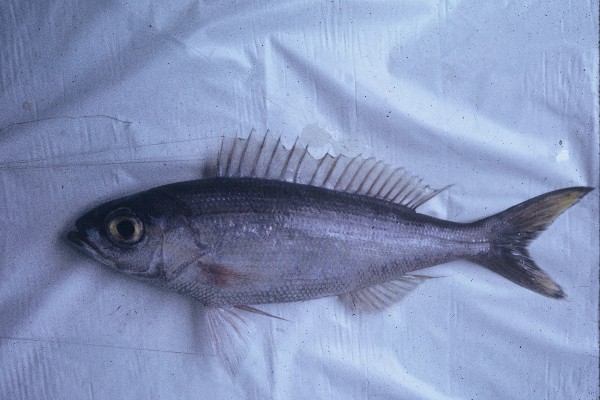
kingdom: Animalia
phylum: Chordata
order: Perciformes
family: Lutjanidae
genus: Pristipomoides
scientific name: Pristipomoides
